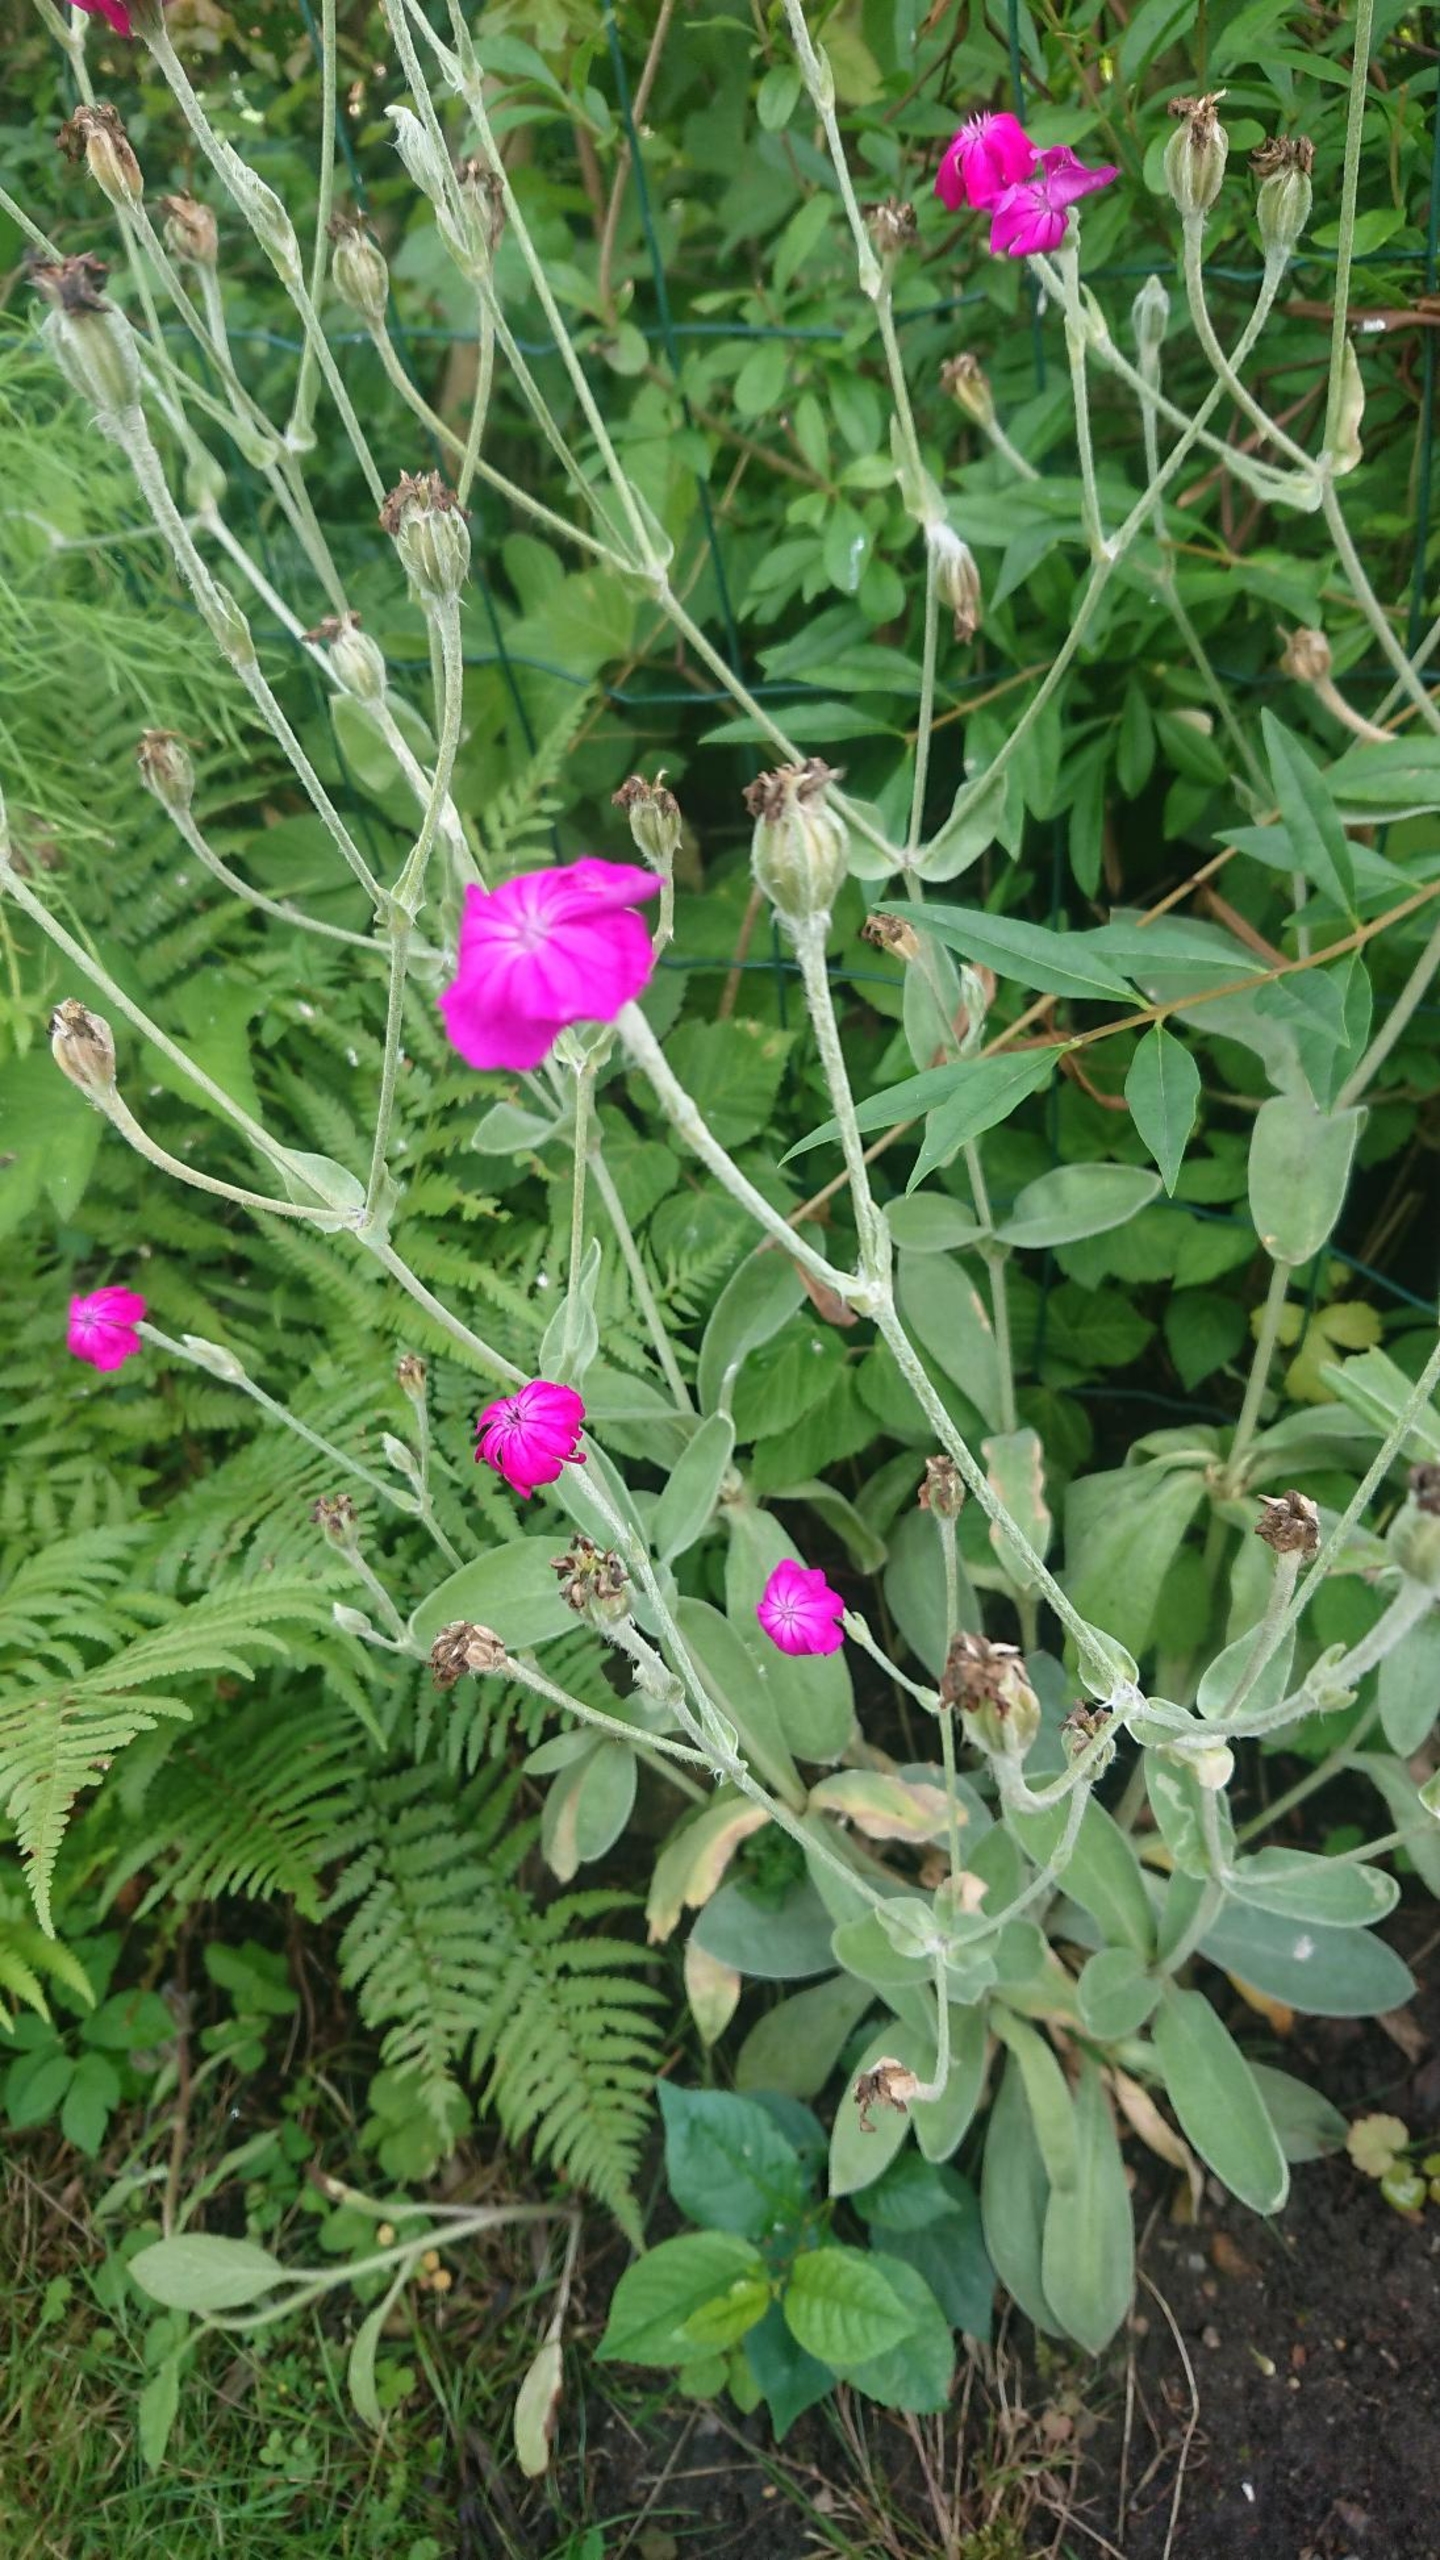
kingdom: Plantae
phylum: Tracheophyta
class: Magnoliopsida
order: Caryophyllales
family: Caryophyllaceae
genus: Silene
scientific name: Silene coronaria
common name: Fiksernellike
